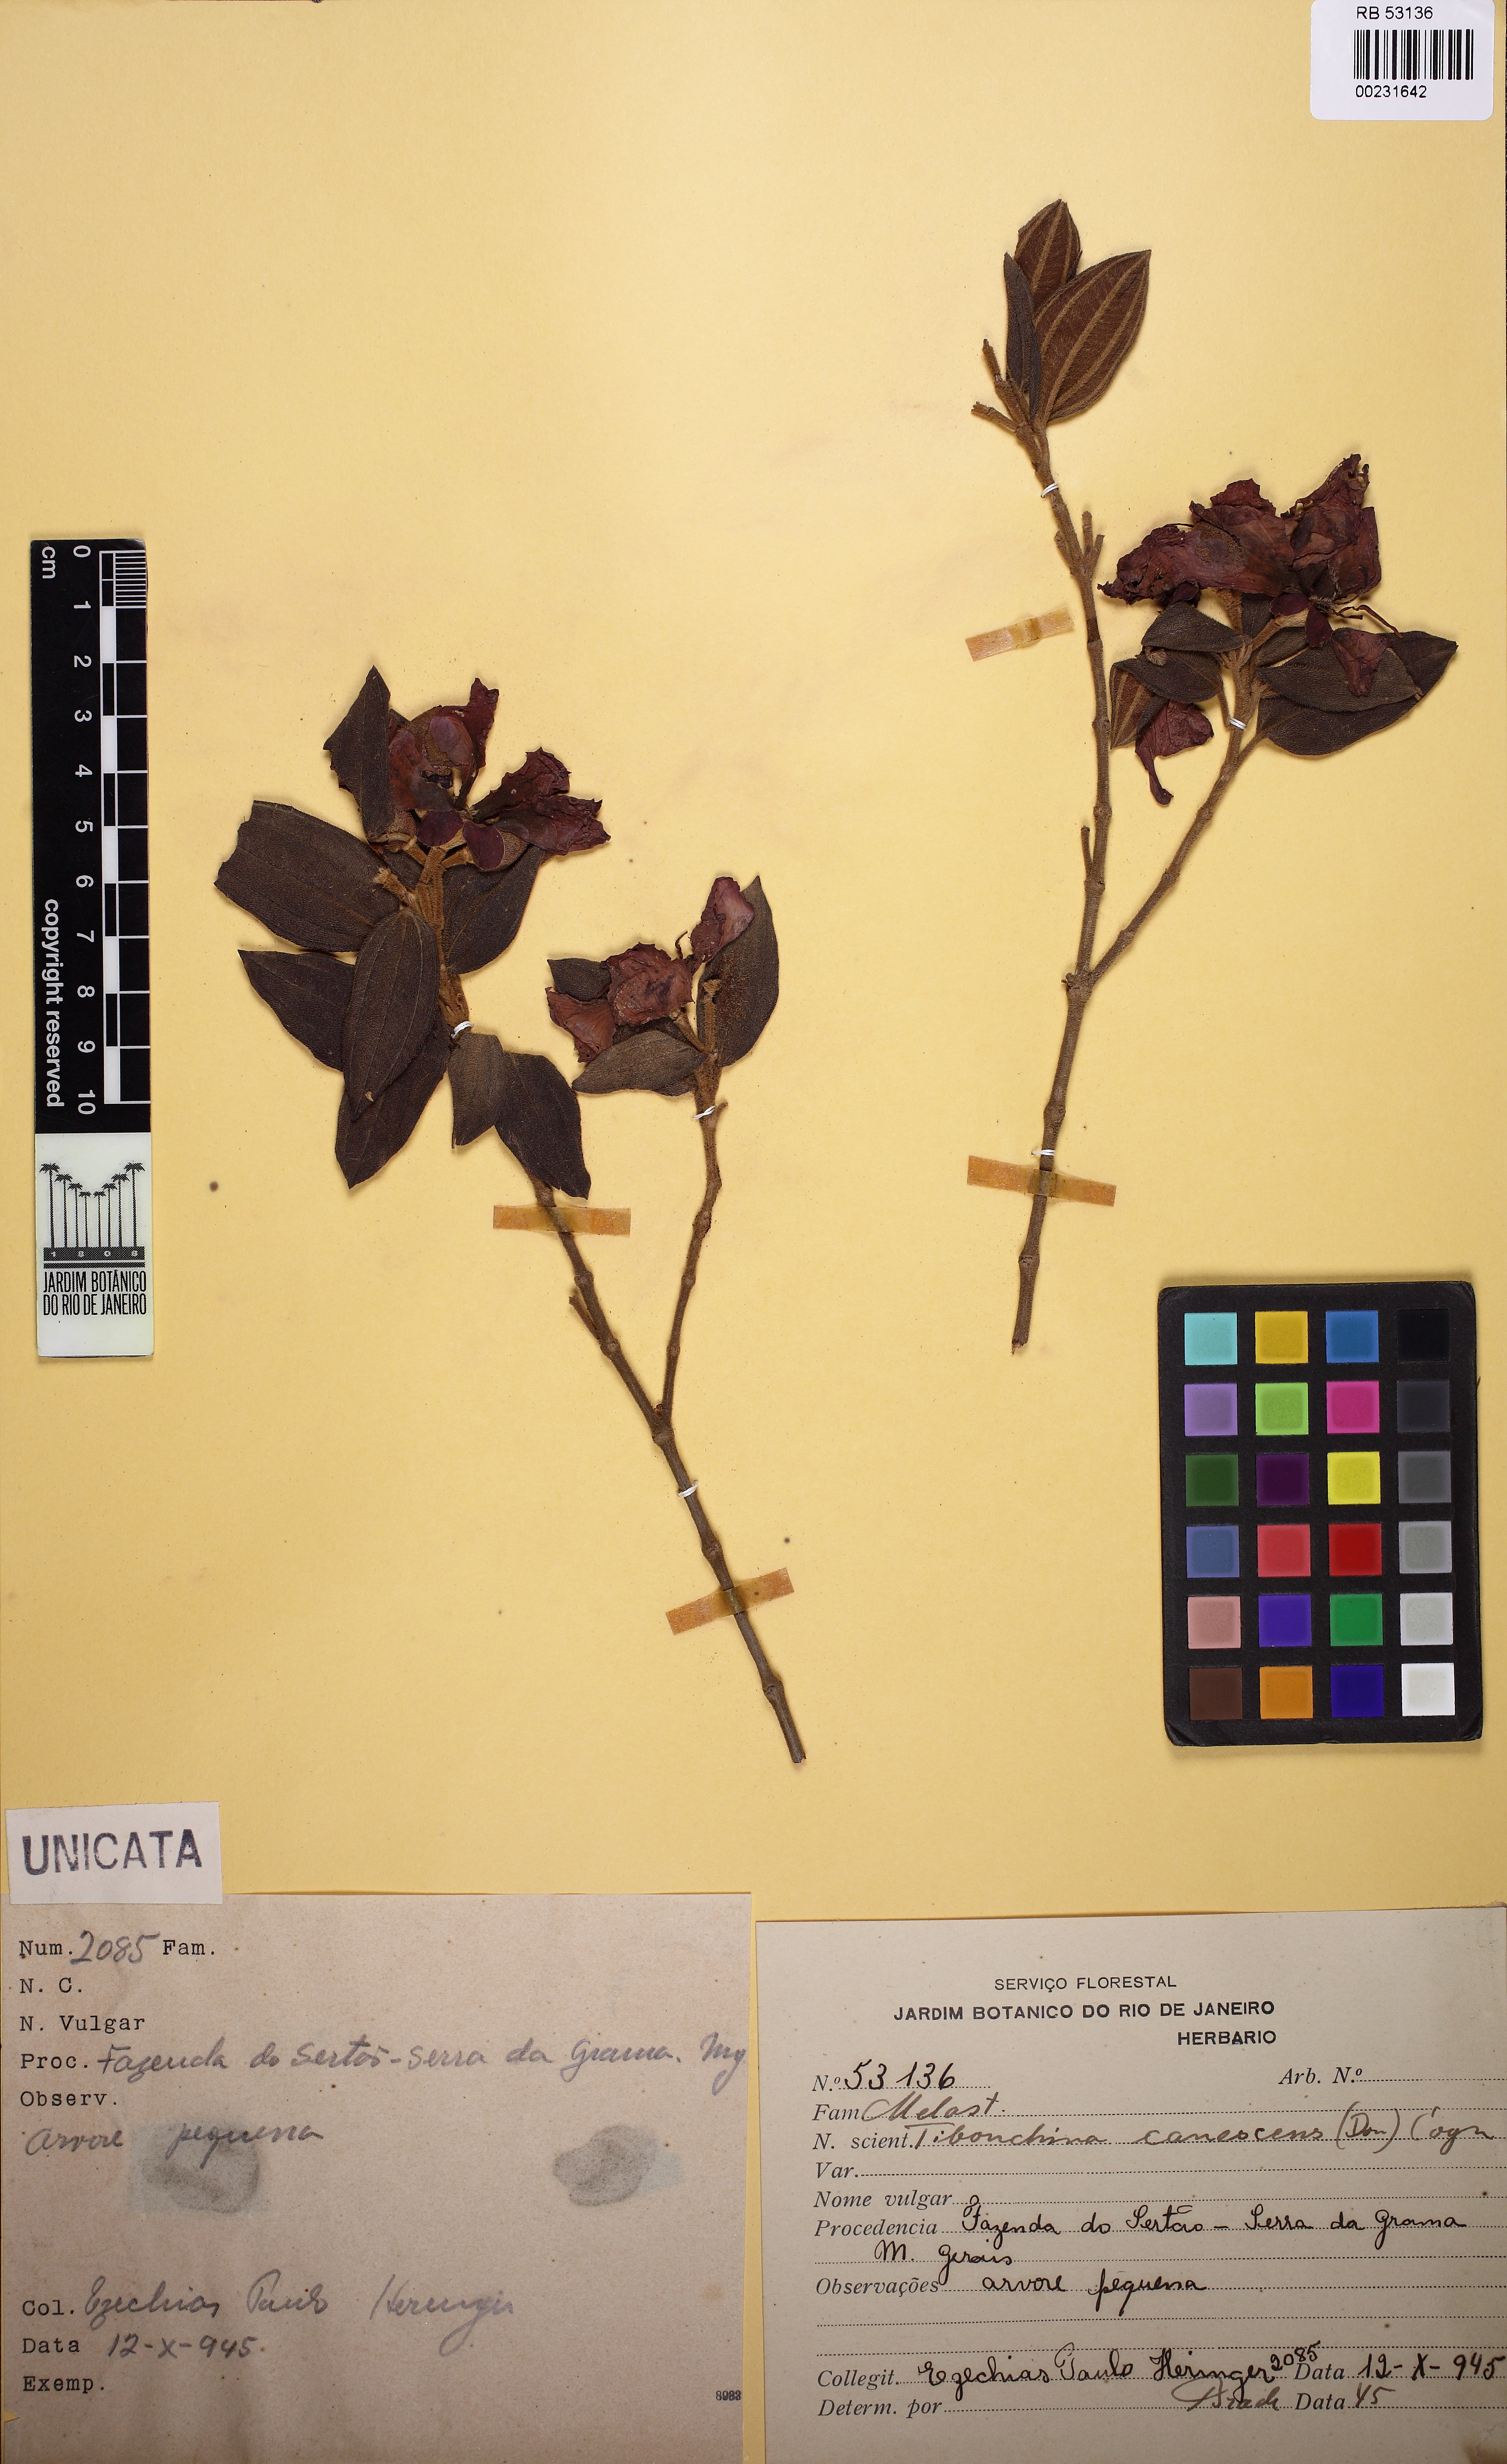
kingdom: Plantae
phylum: Tracheophyta
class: Magnoliopsida
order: Myrtales
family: Melastomataceae
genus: Pleroma
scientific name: Pleroma canescens
